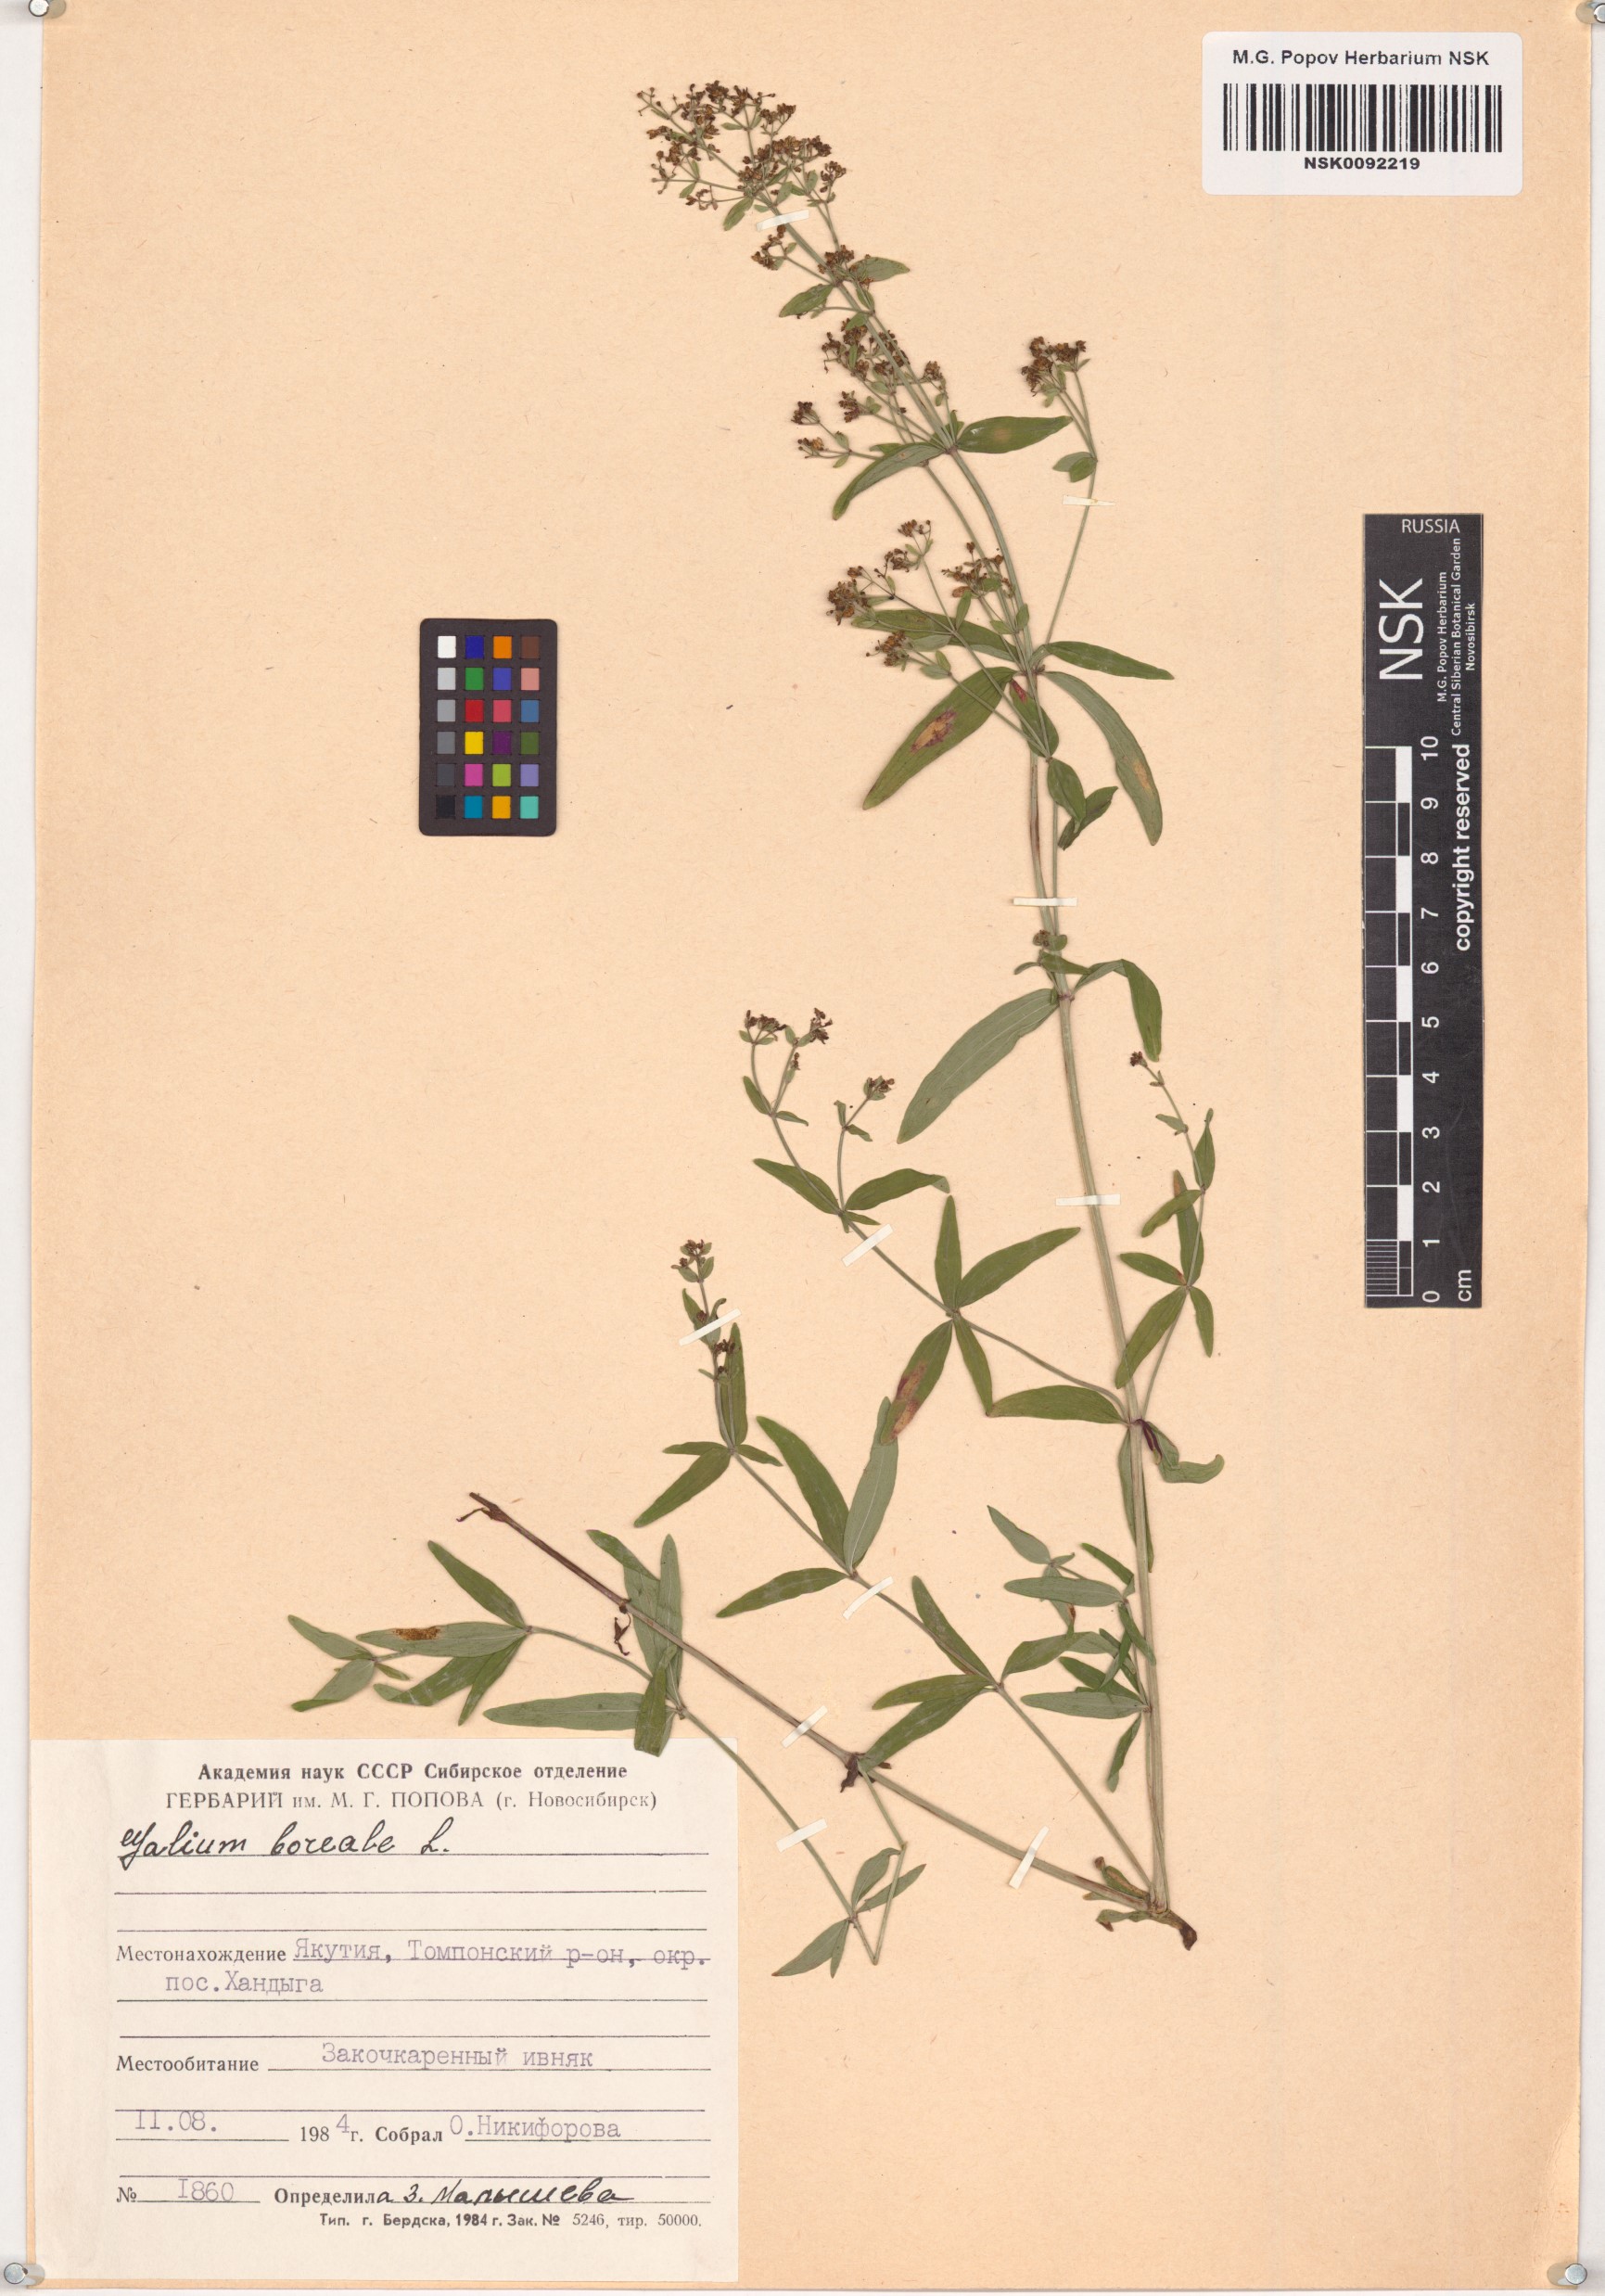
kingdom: Plantae
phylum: Tracheophyta
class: Magnoliopsida
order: Gentianales
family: Rubiaceae
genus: Galium
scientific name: Galium boreale
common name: Northern bedstraw
